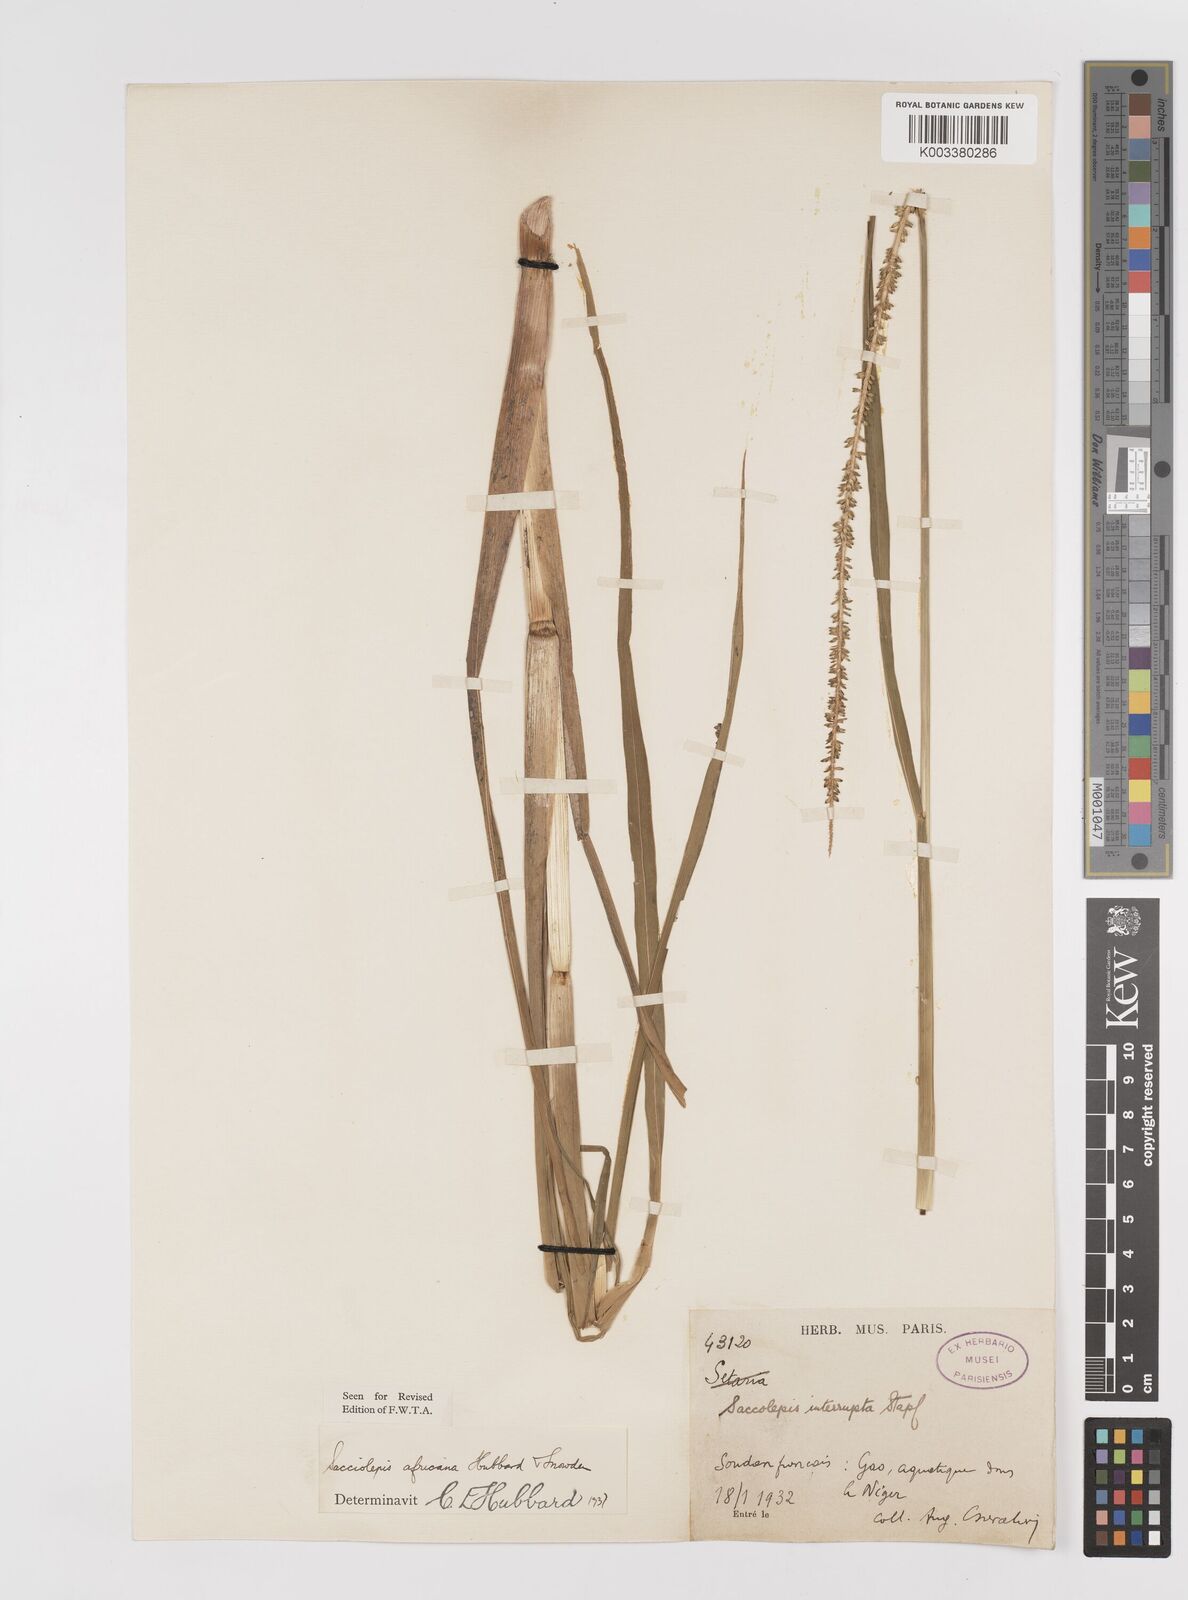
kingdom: Plantae
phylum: Tracheophyta
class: Liliopsida
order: Poales
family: Poaceae
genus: Sacciolepis
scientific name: Sacciolepis africana
